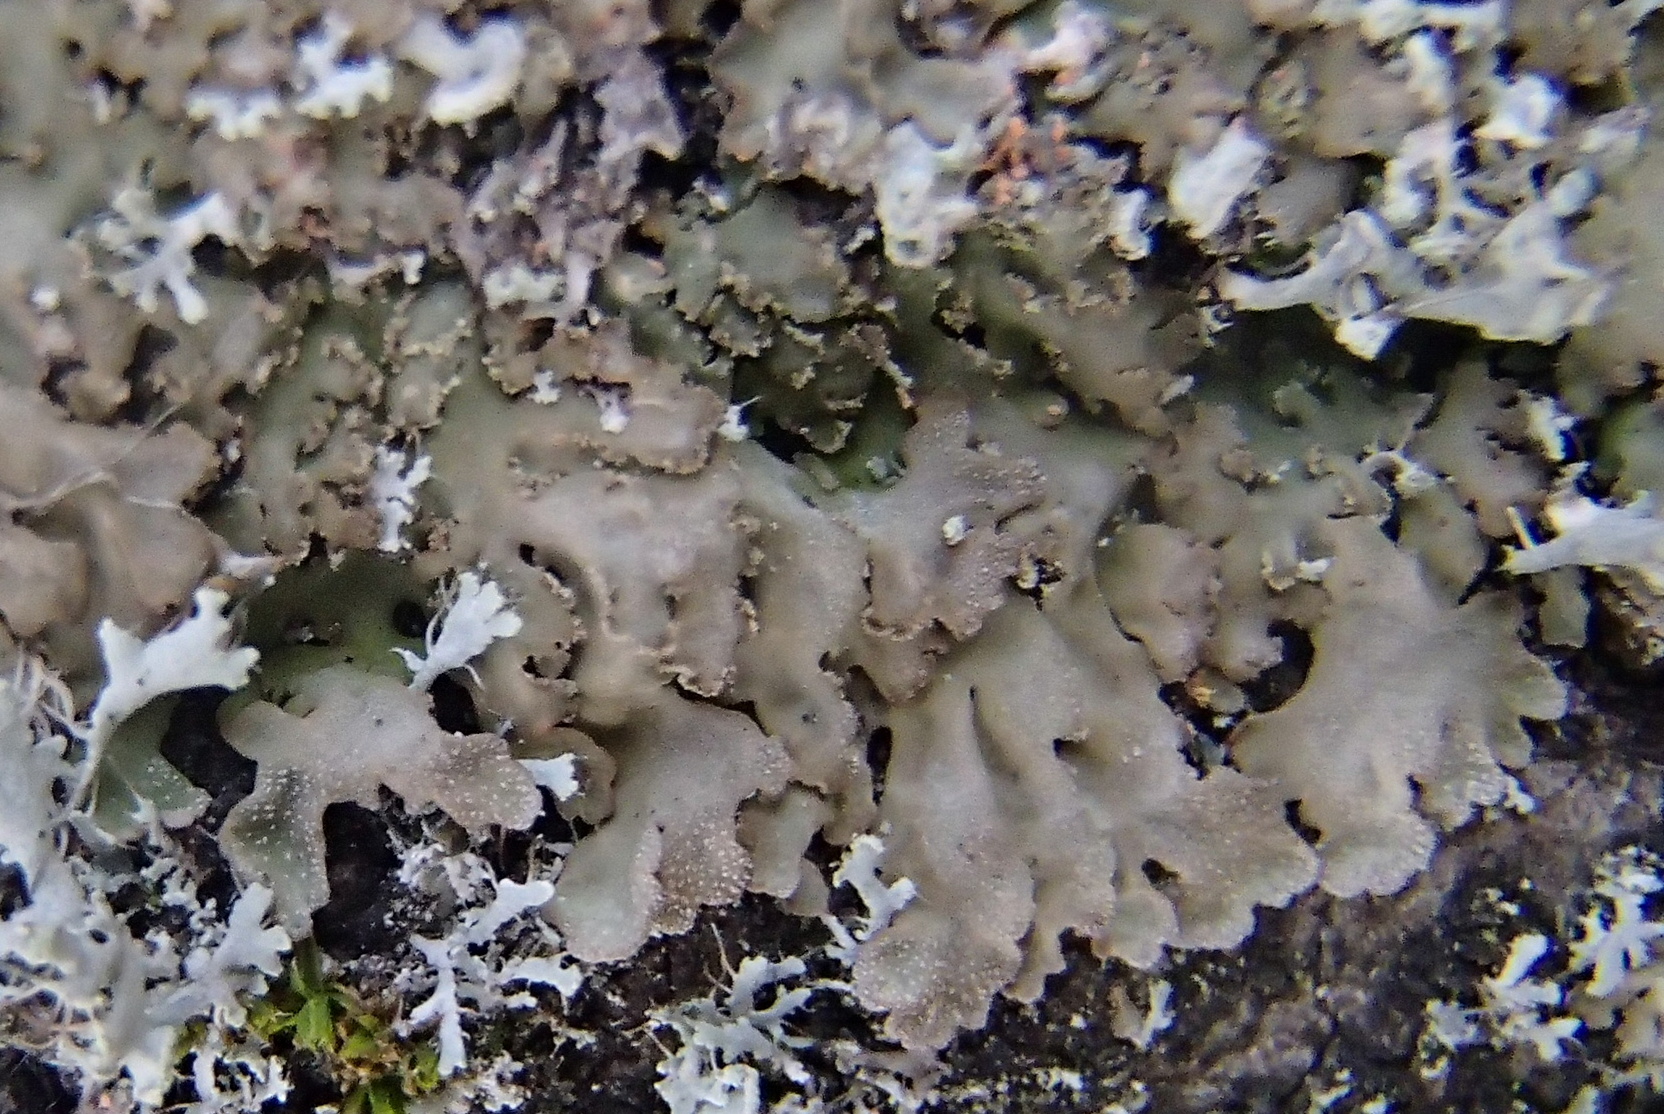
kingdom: Fungi
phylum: Ascomycota
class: Lecanoromycetes
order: Caliciales
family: Physciaceae
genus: Poeltonia
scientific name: Poeltonia grisea
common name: hvidgrå dugrosetlav
